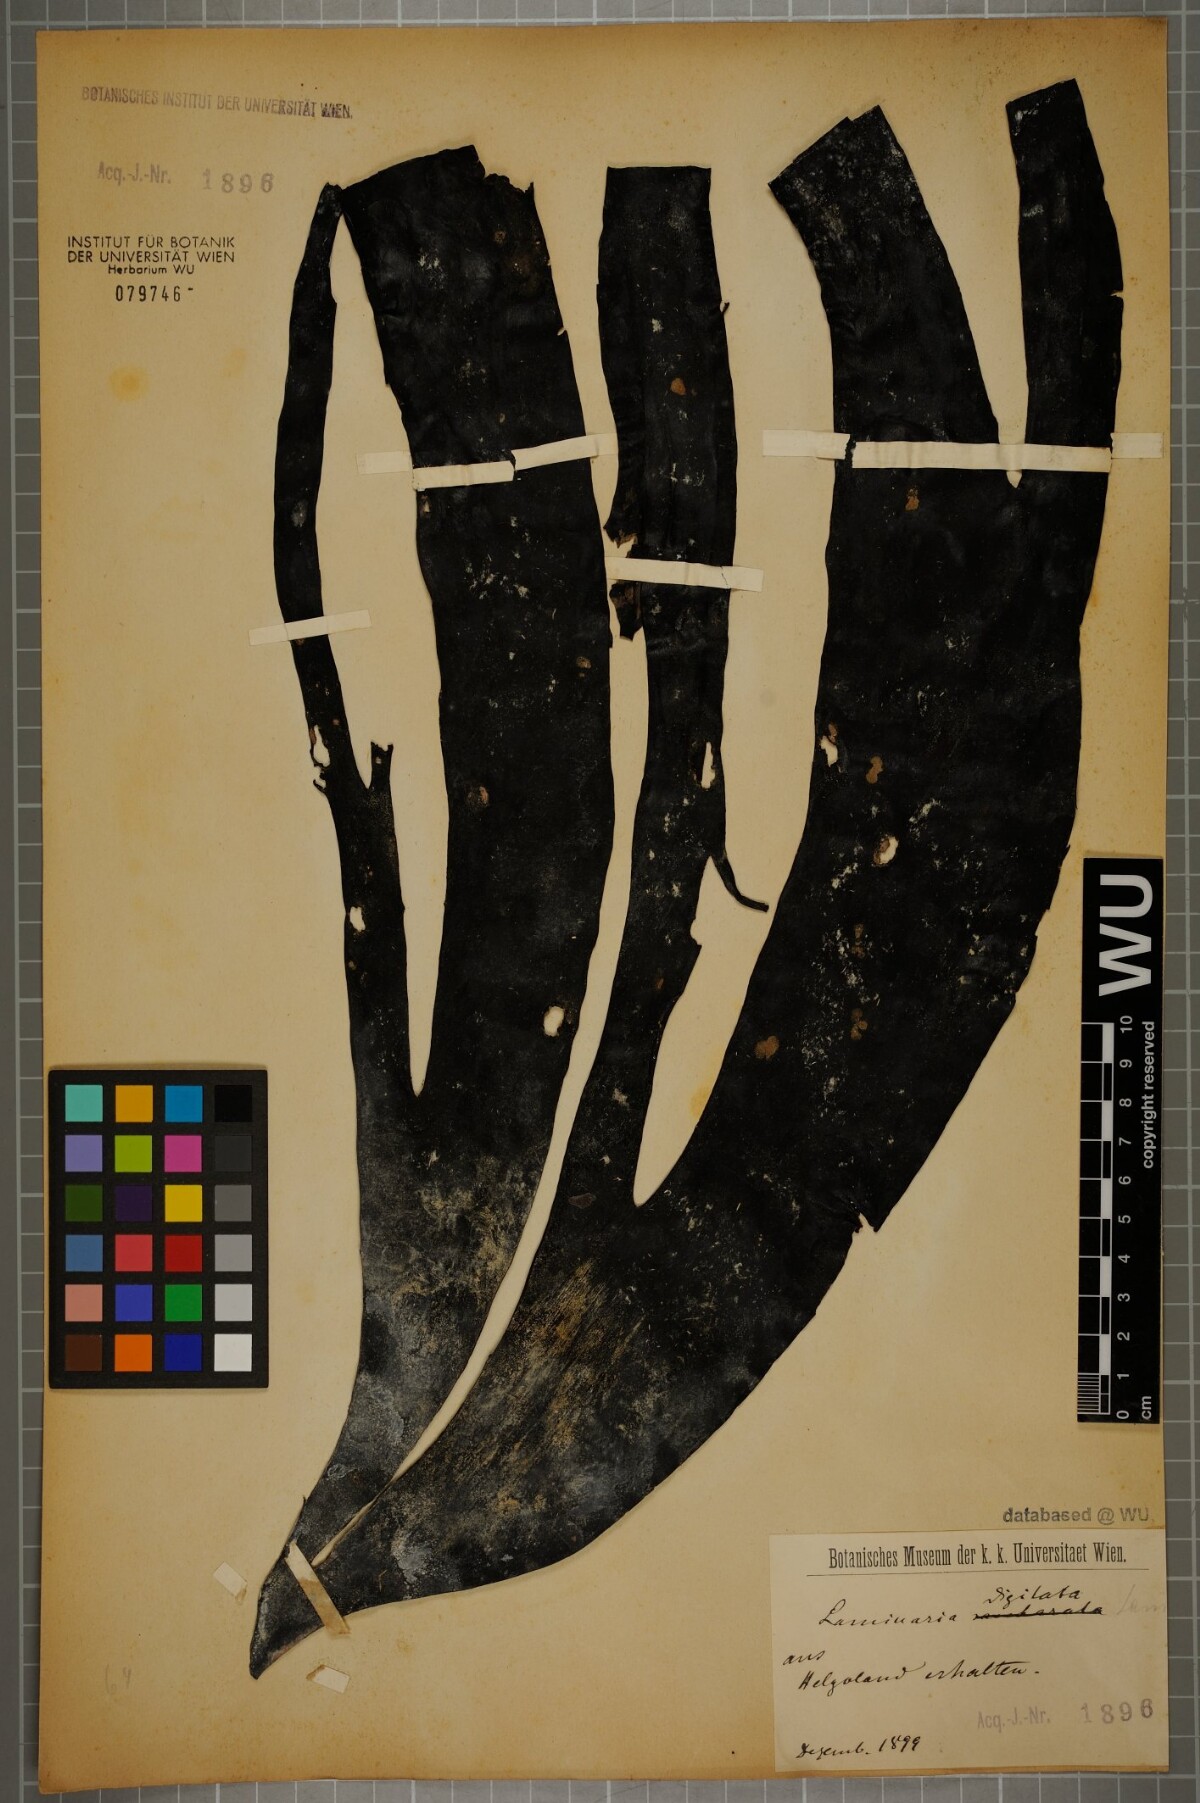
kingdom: Chromista
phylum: Ochrophyta
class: Phaeophyceae
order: Laminariales
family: Laminariaceae
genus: Laminaria
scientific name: Laminaria digitata
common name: Oarweed
